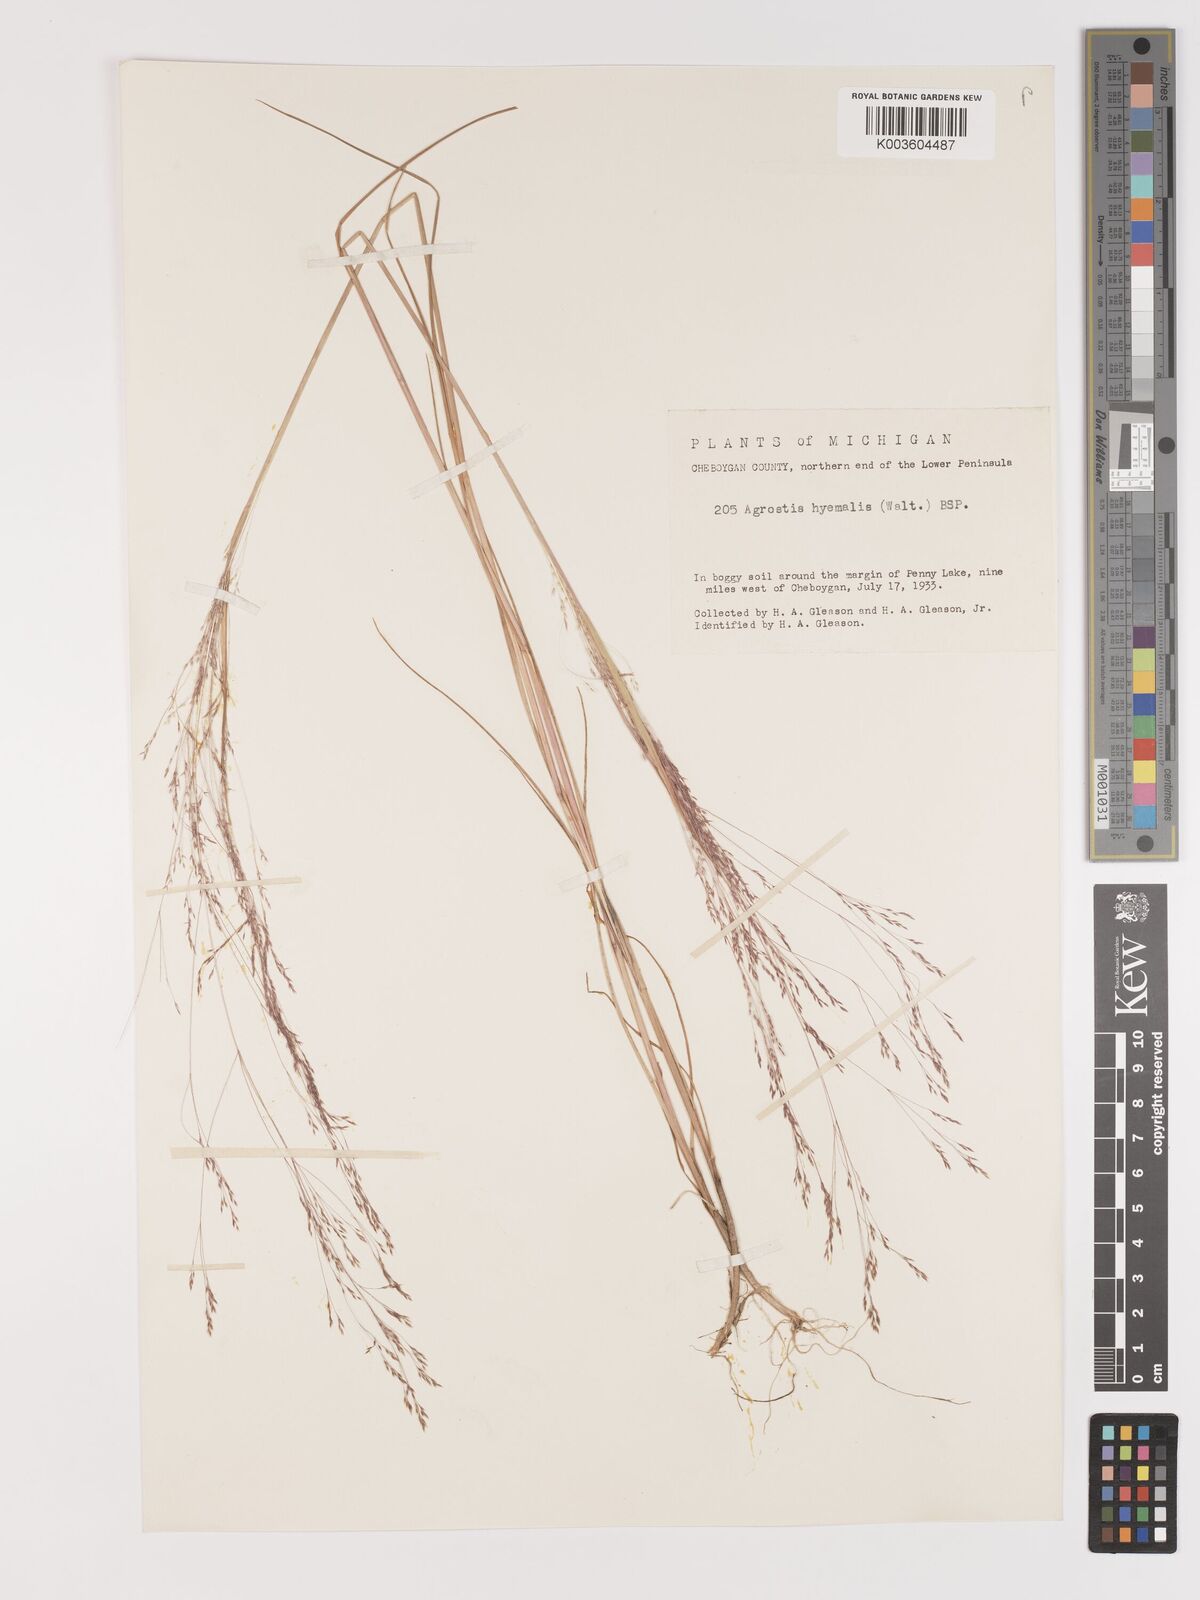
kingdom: Plantae
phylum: Tracheophyta
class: Liliopsida
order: Poales
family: Poaceae
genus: Agrostis
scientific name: Agrostis hyemalis
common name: Small bent
